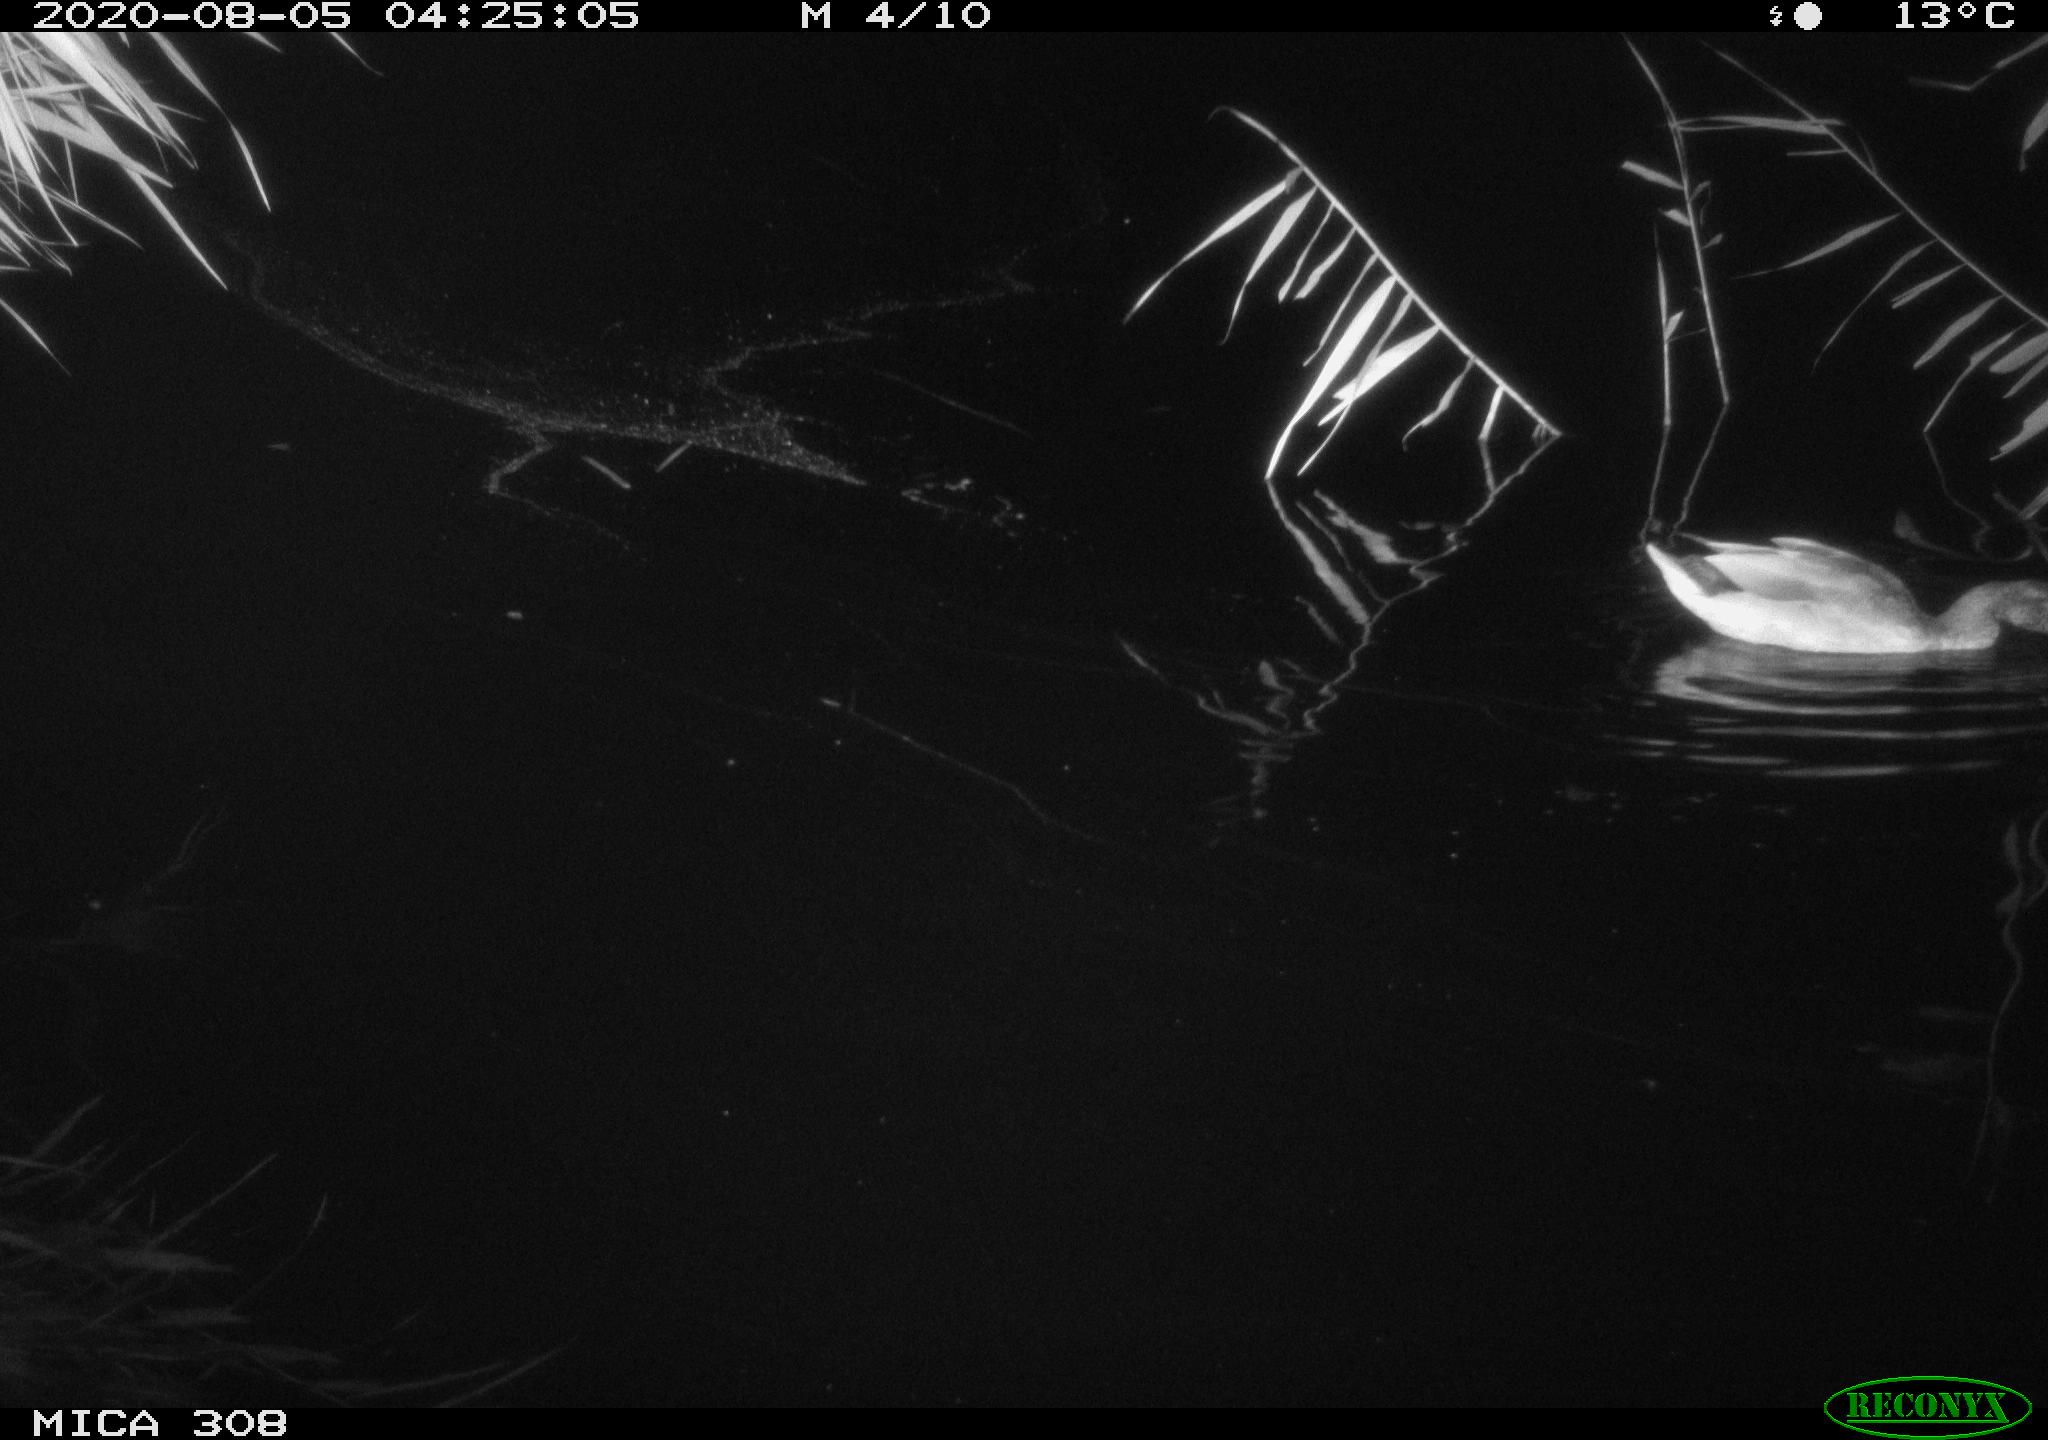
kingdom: Animalia
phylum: Chordata
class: Aves
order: Anseriformes
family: Anatidae
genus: Anas
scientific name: Anas platyrhynchos
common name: Mallard
